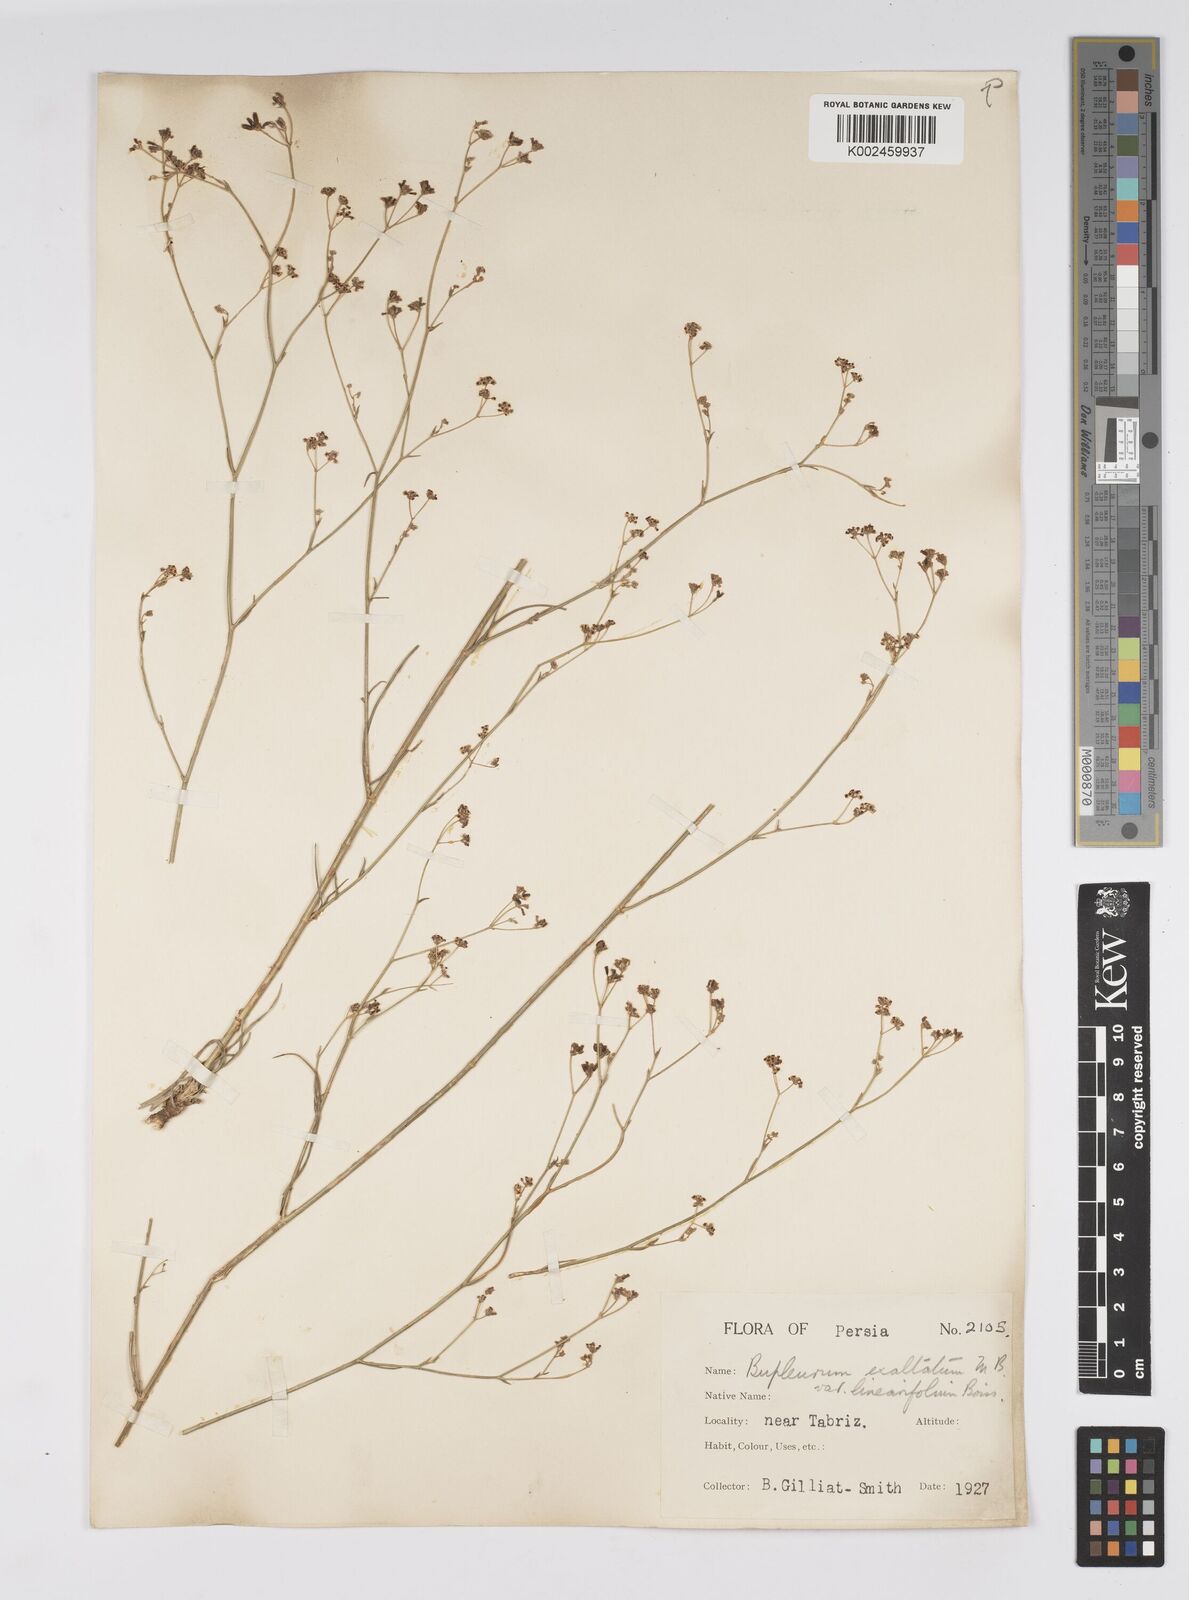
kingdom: Plantae
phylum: Tracheophyta
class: Magnoliopsida
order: Apiales
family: Apiaceae
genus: Bupleurum
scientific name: Bupleurum falcatum
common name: Sickle-leaved hare's-ear
